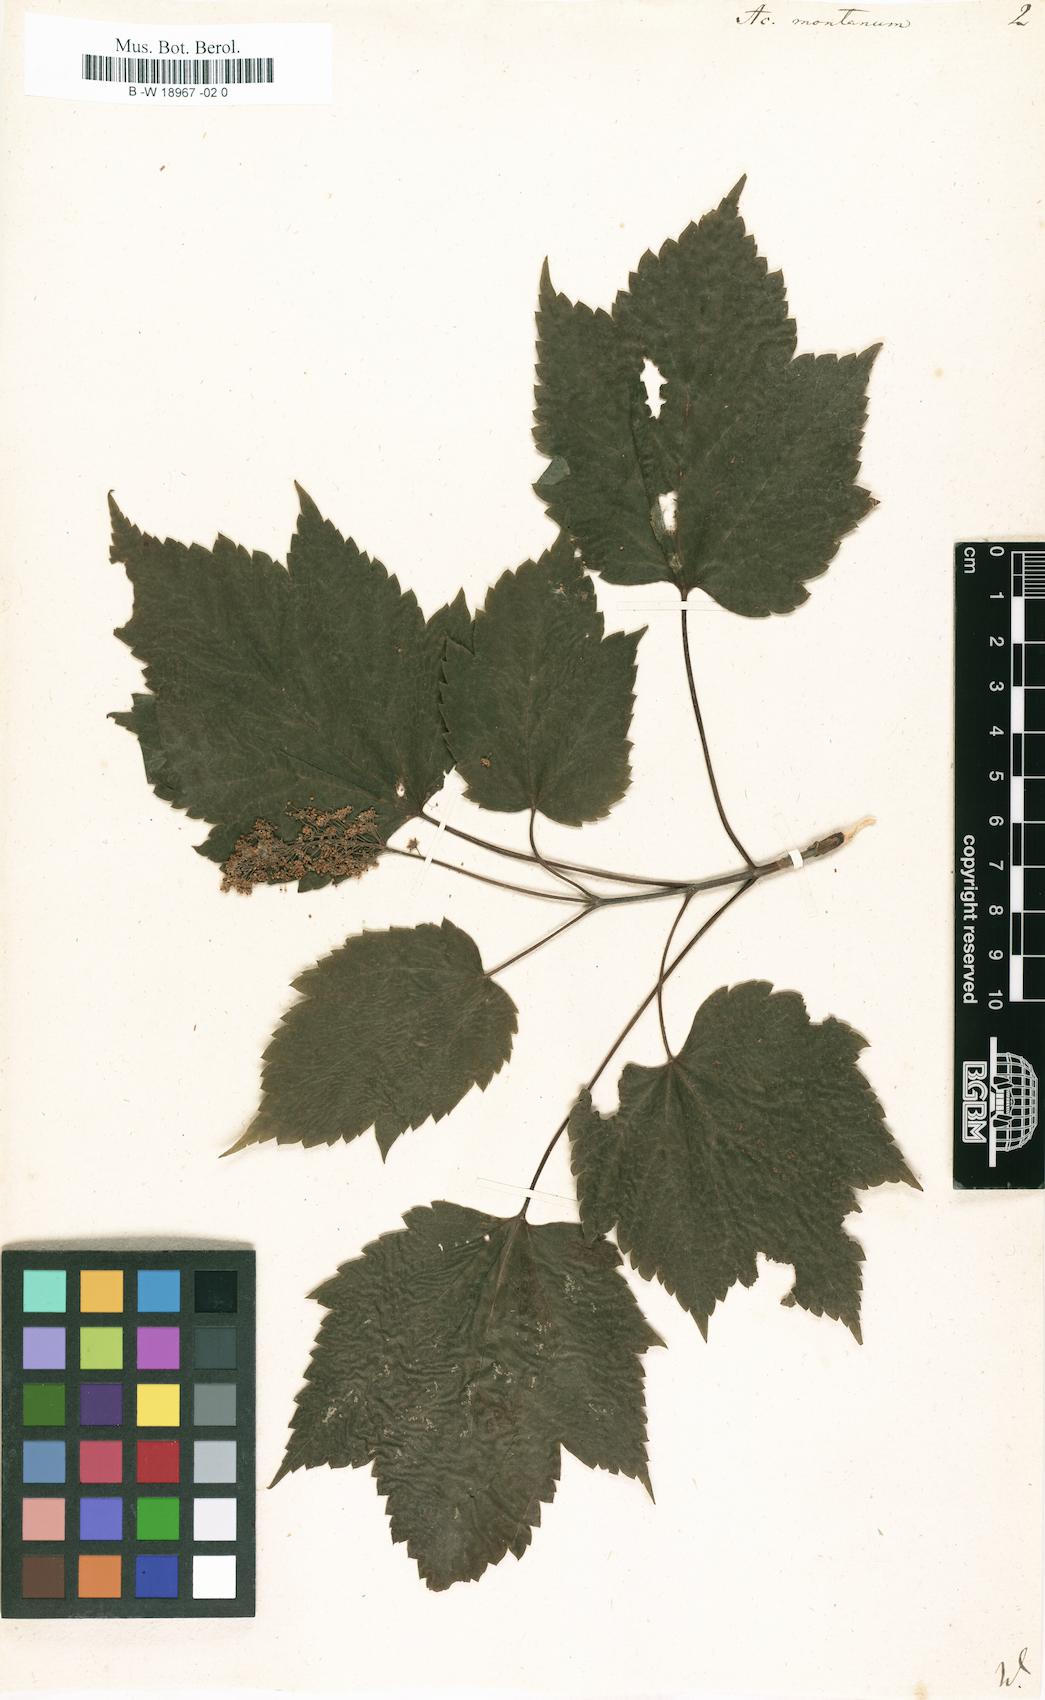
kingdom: Plantae
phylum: Tracheophyta
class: Magnoliopsida
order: Sapindales
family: Sapindaceae
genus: Acer
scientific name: Acer pseudoplatanus
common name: Sycamore
